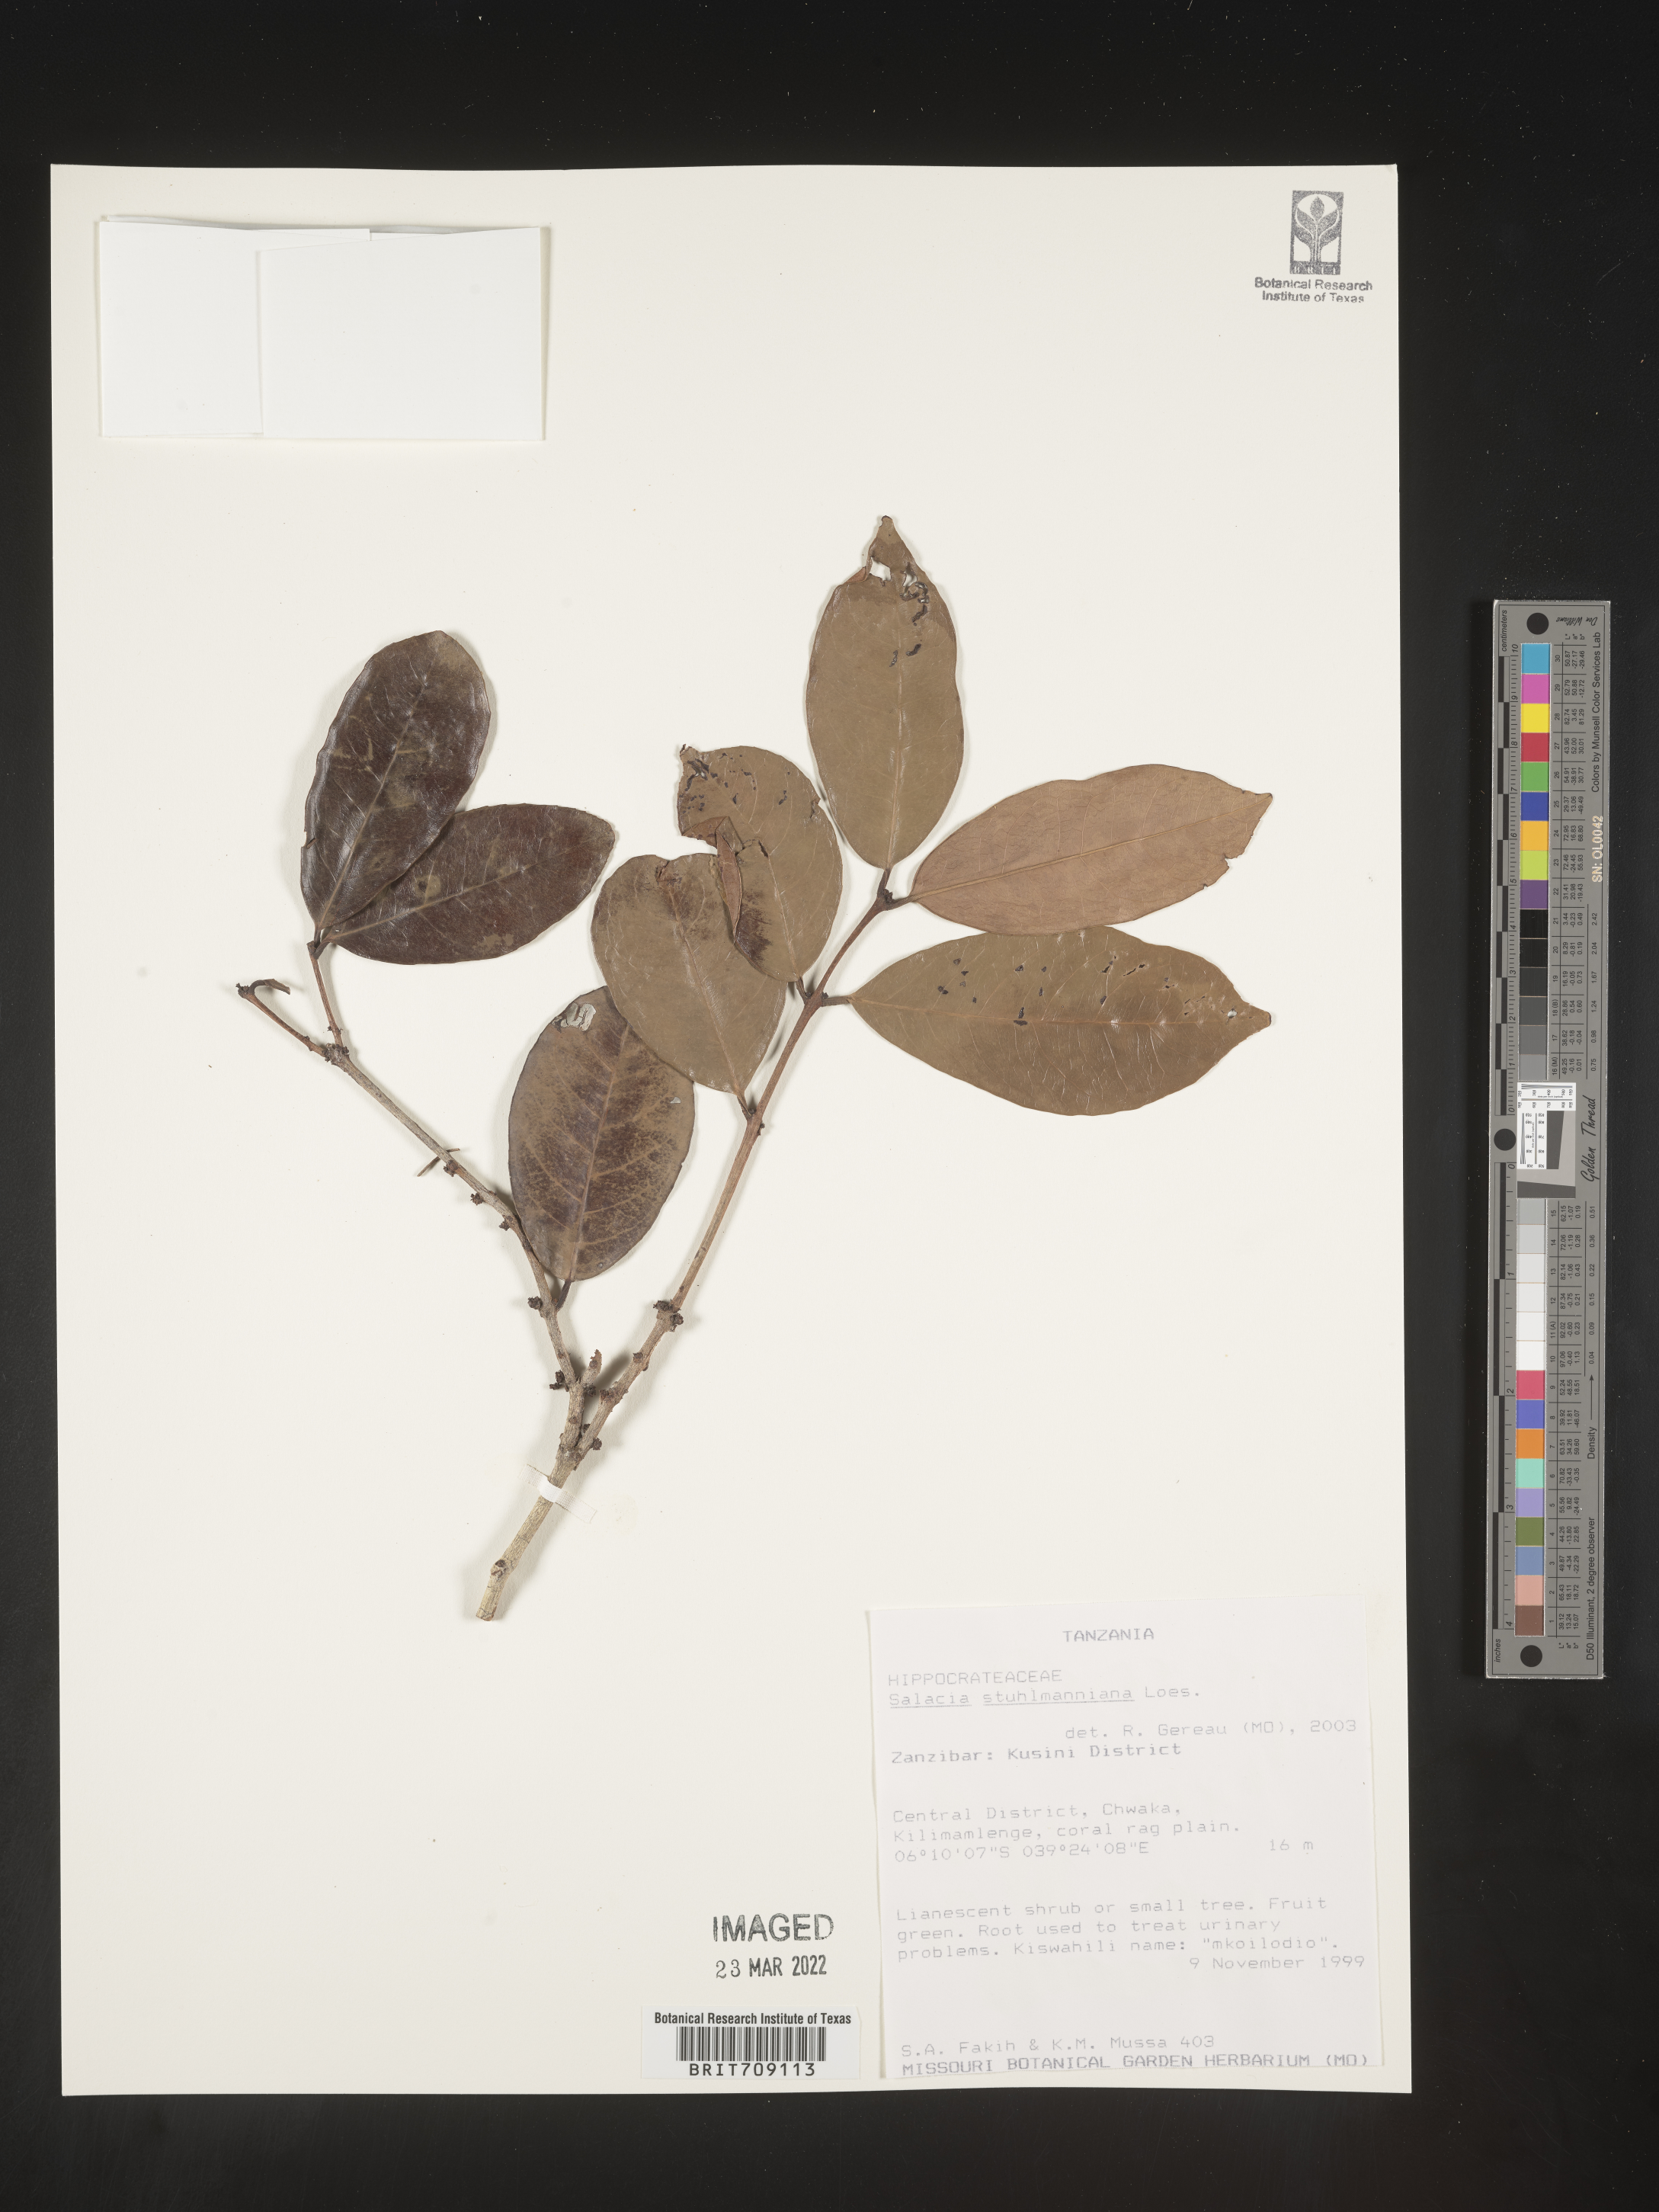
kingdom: Plantae
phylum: Tracheophyta
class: Magnoliopsida
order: Celastrales
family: Celastraceae
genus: Salacia
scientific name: Salacia
